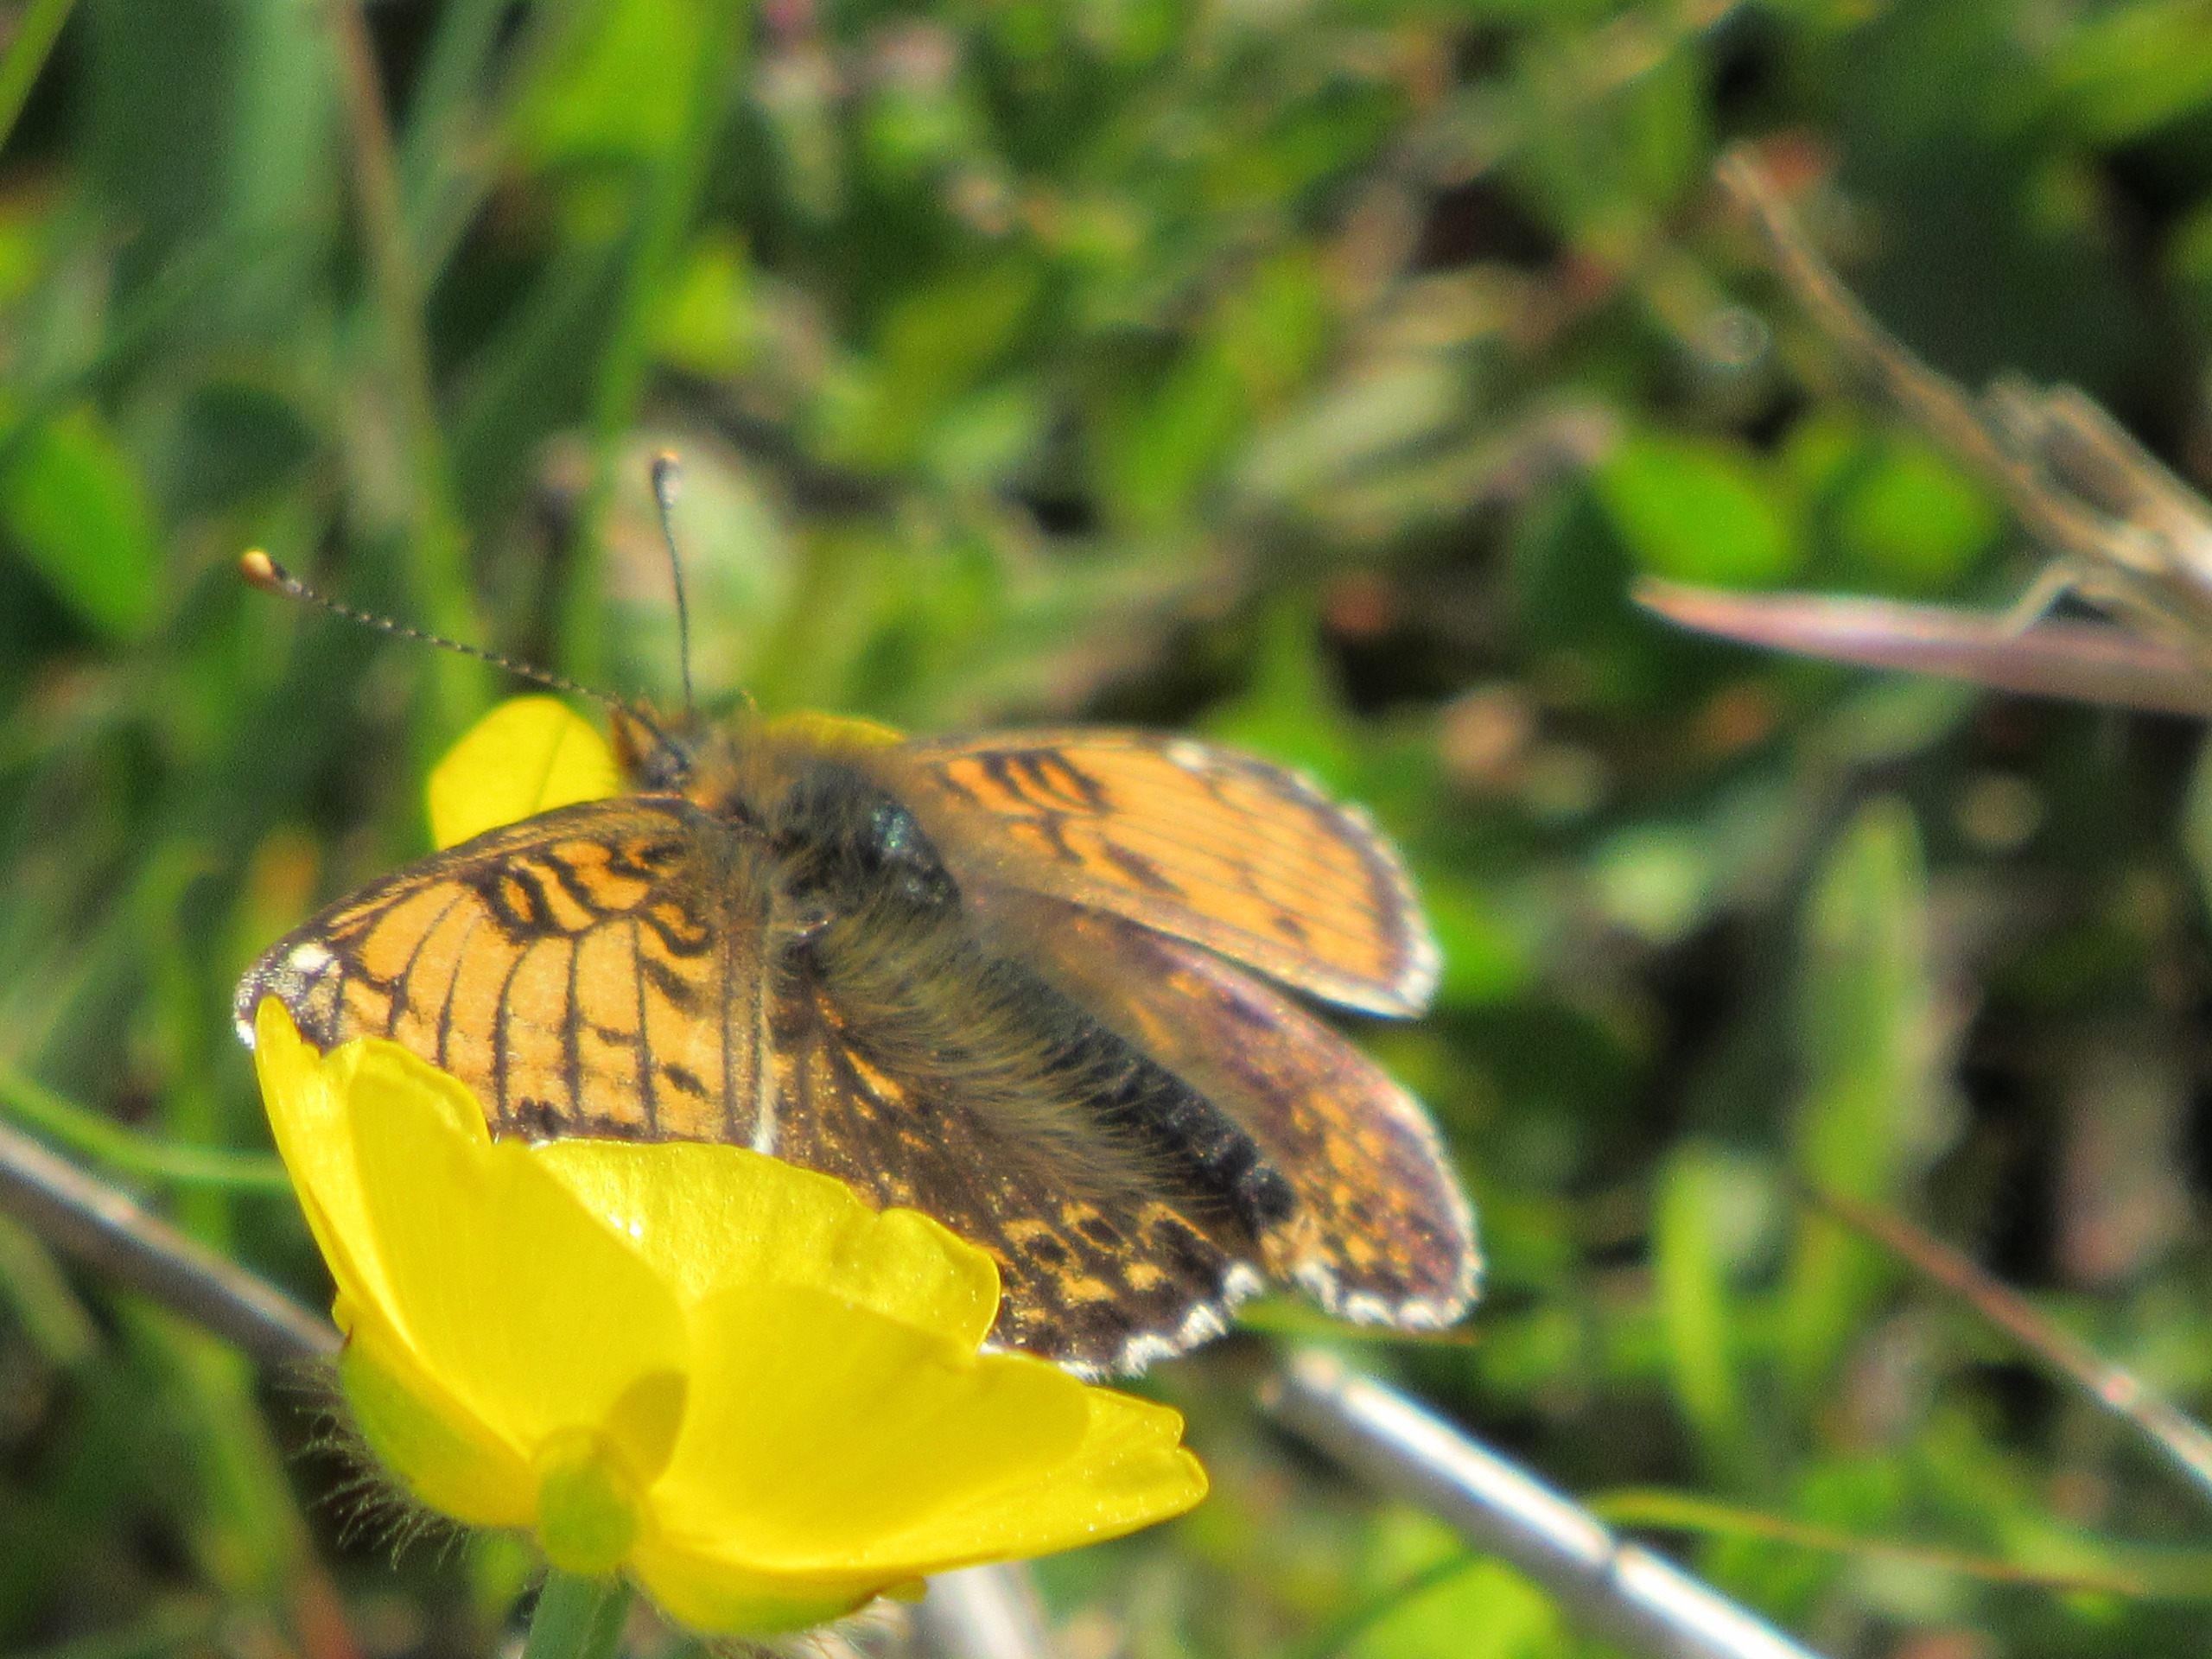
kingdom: Animalia
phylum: Arthropoda
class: Insecta
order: Lepidoptera
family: Nymphalidae
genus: Melitaea
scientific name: Melitaea cinxia
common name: Okkergul pletvinge
